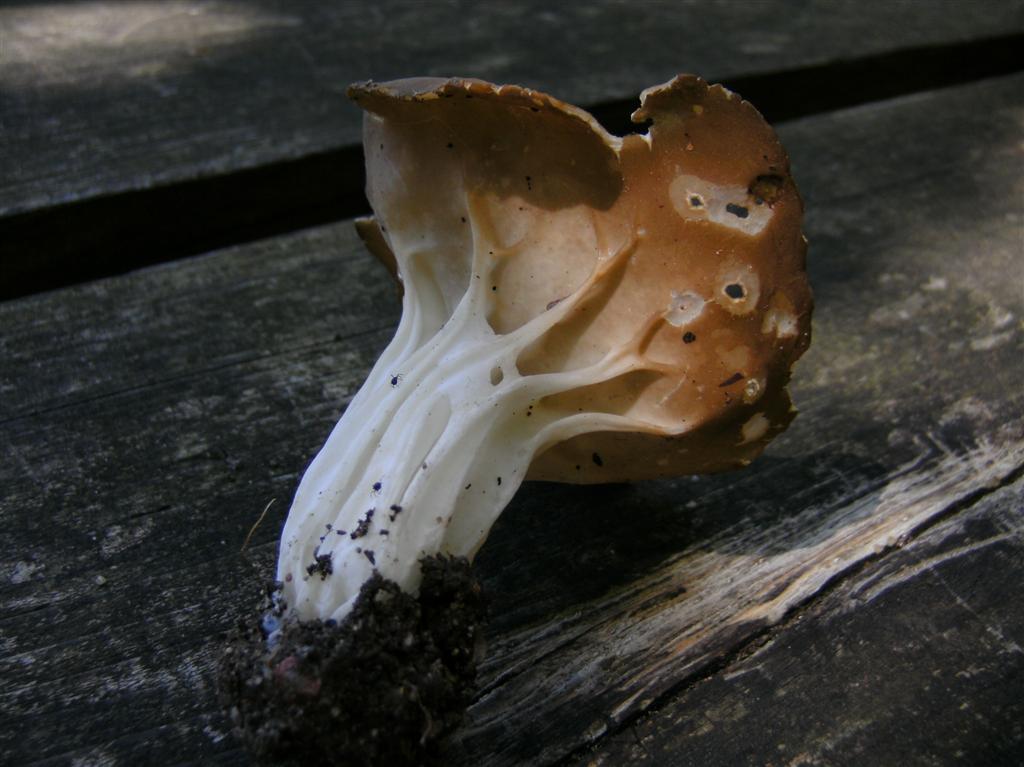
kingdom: Fungi
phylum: Ascomycota
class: Pezizomycetes
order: Pezizales
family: Helvellaceae
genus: Helvella
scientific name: Helvella acetabulum
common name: pokal-foldhat
